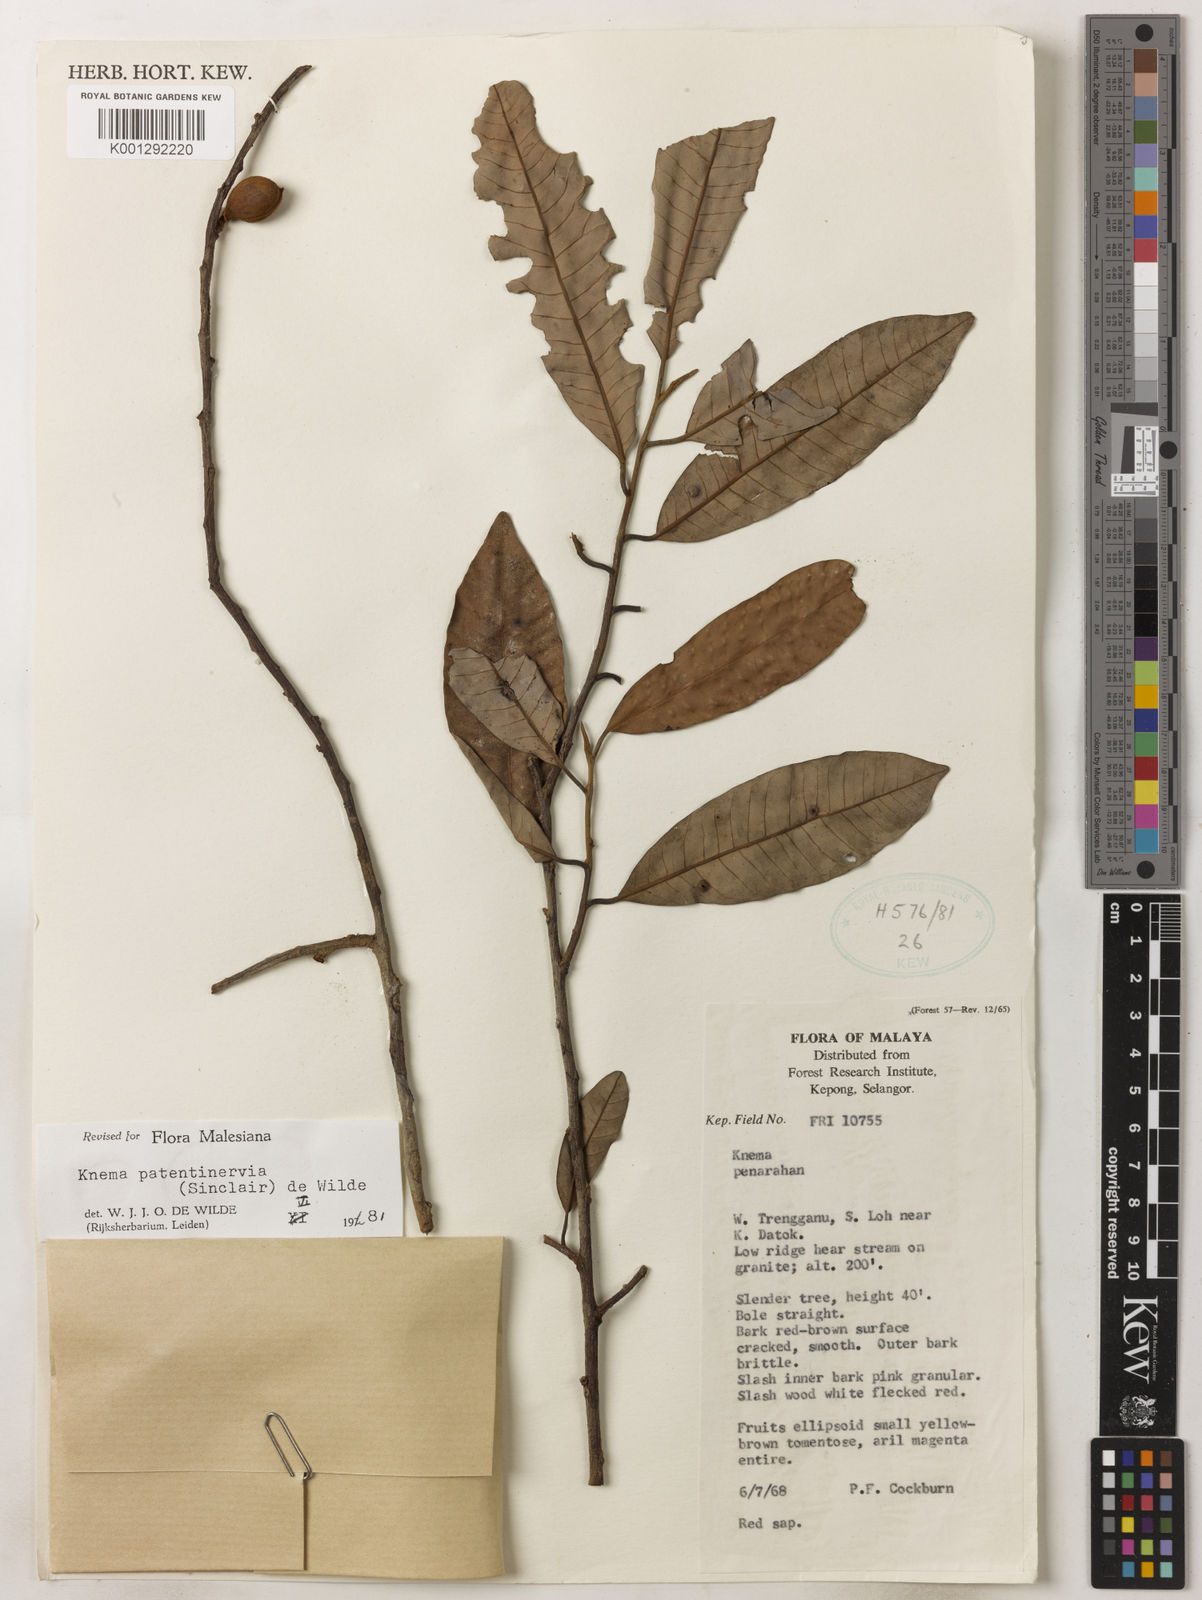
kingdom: Plantae
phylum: Tracheophyta
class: Magnoliopsida
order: Magnoliales
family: Myristicaceae
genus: Knema
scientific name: Knema patentinervia
